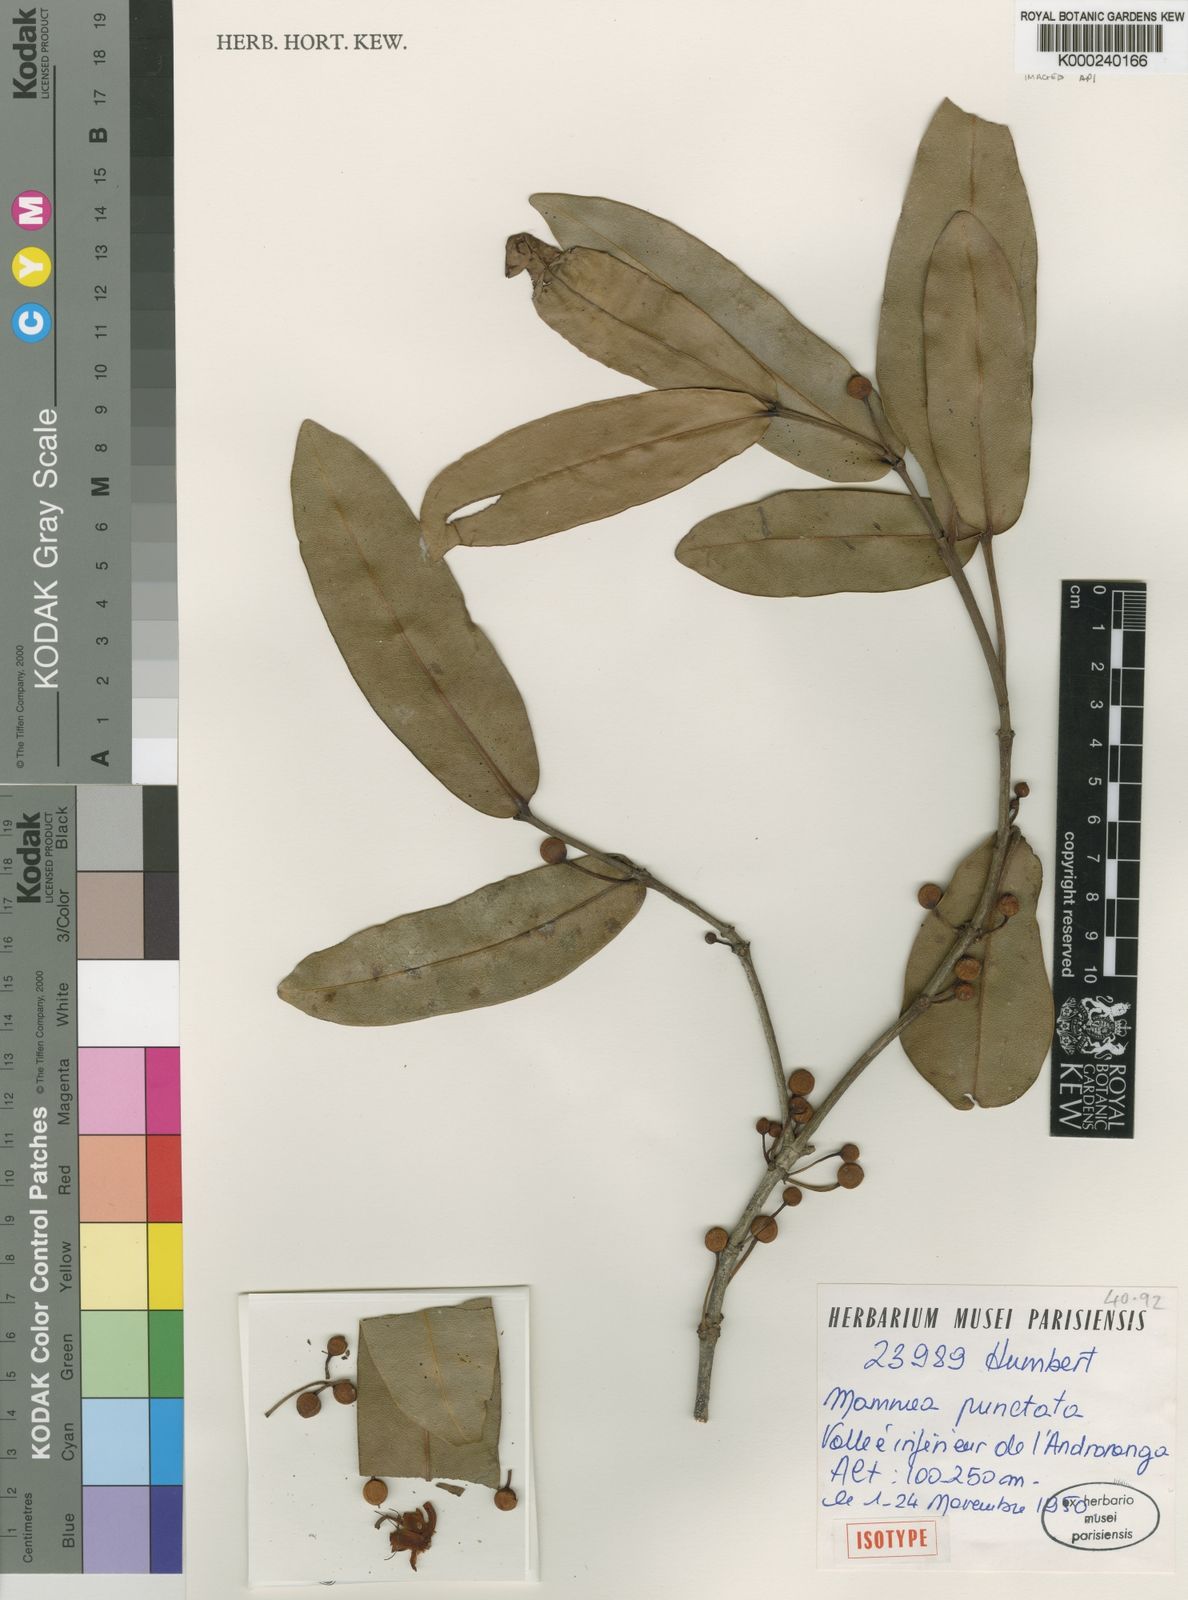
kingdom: Plantae
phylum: Tracheophyta
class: Magnoliopsida
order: Malpighiales
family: Calophyllaceae
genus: Mammea
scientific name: Mammea punctata
